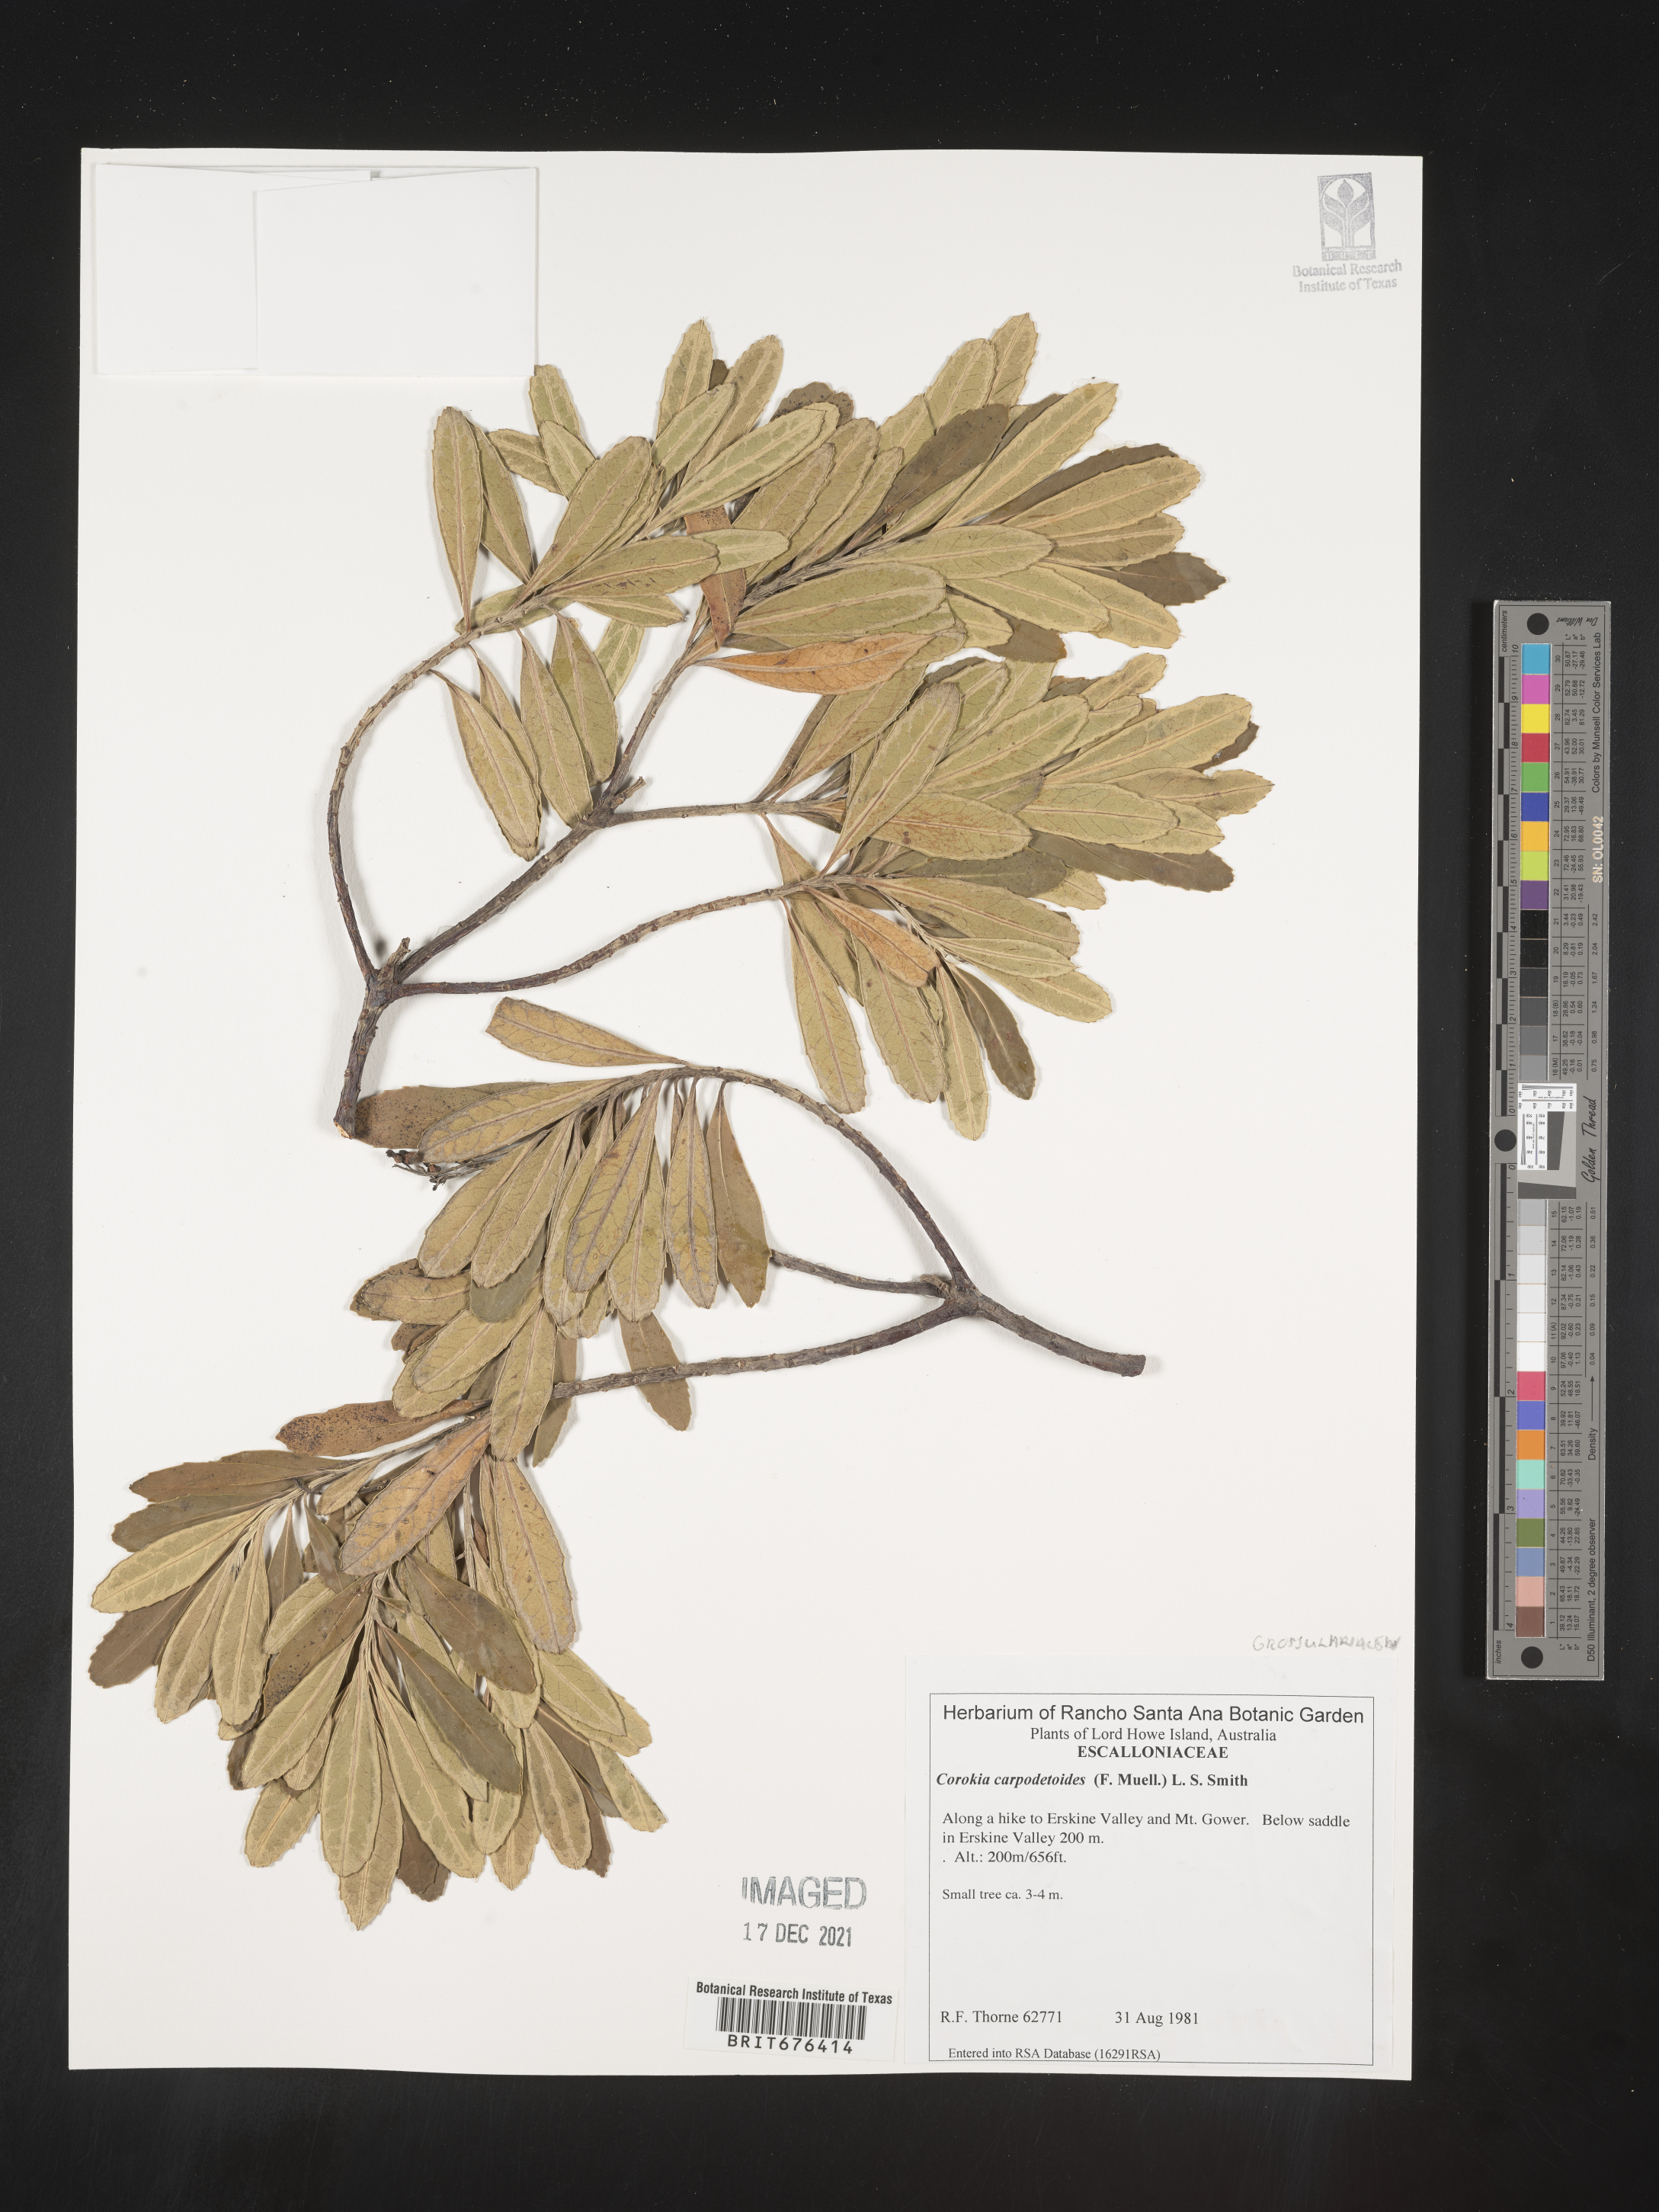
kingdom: Plantae
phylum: Tracheophyta
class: Magnoliopsida
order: Asterales
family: Argophyllaceae
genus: Corokia
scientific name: Corokia
